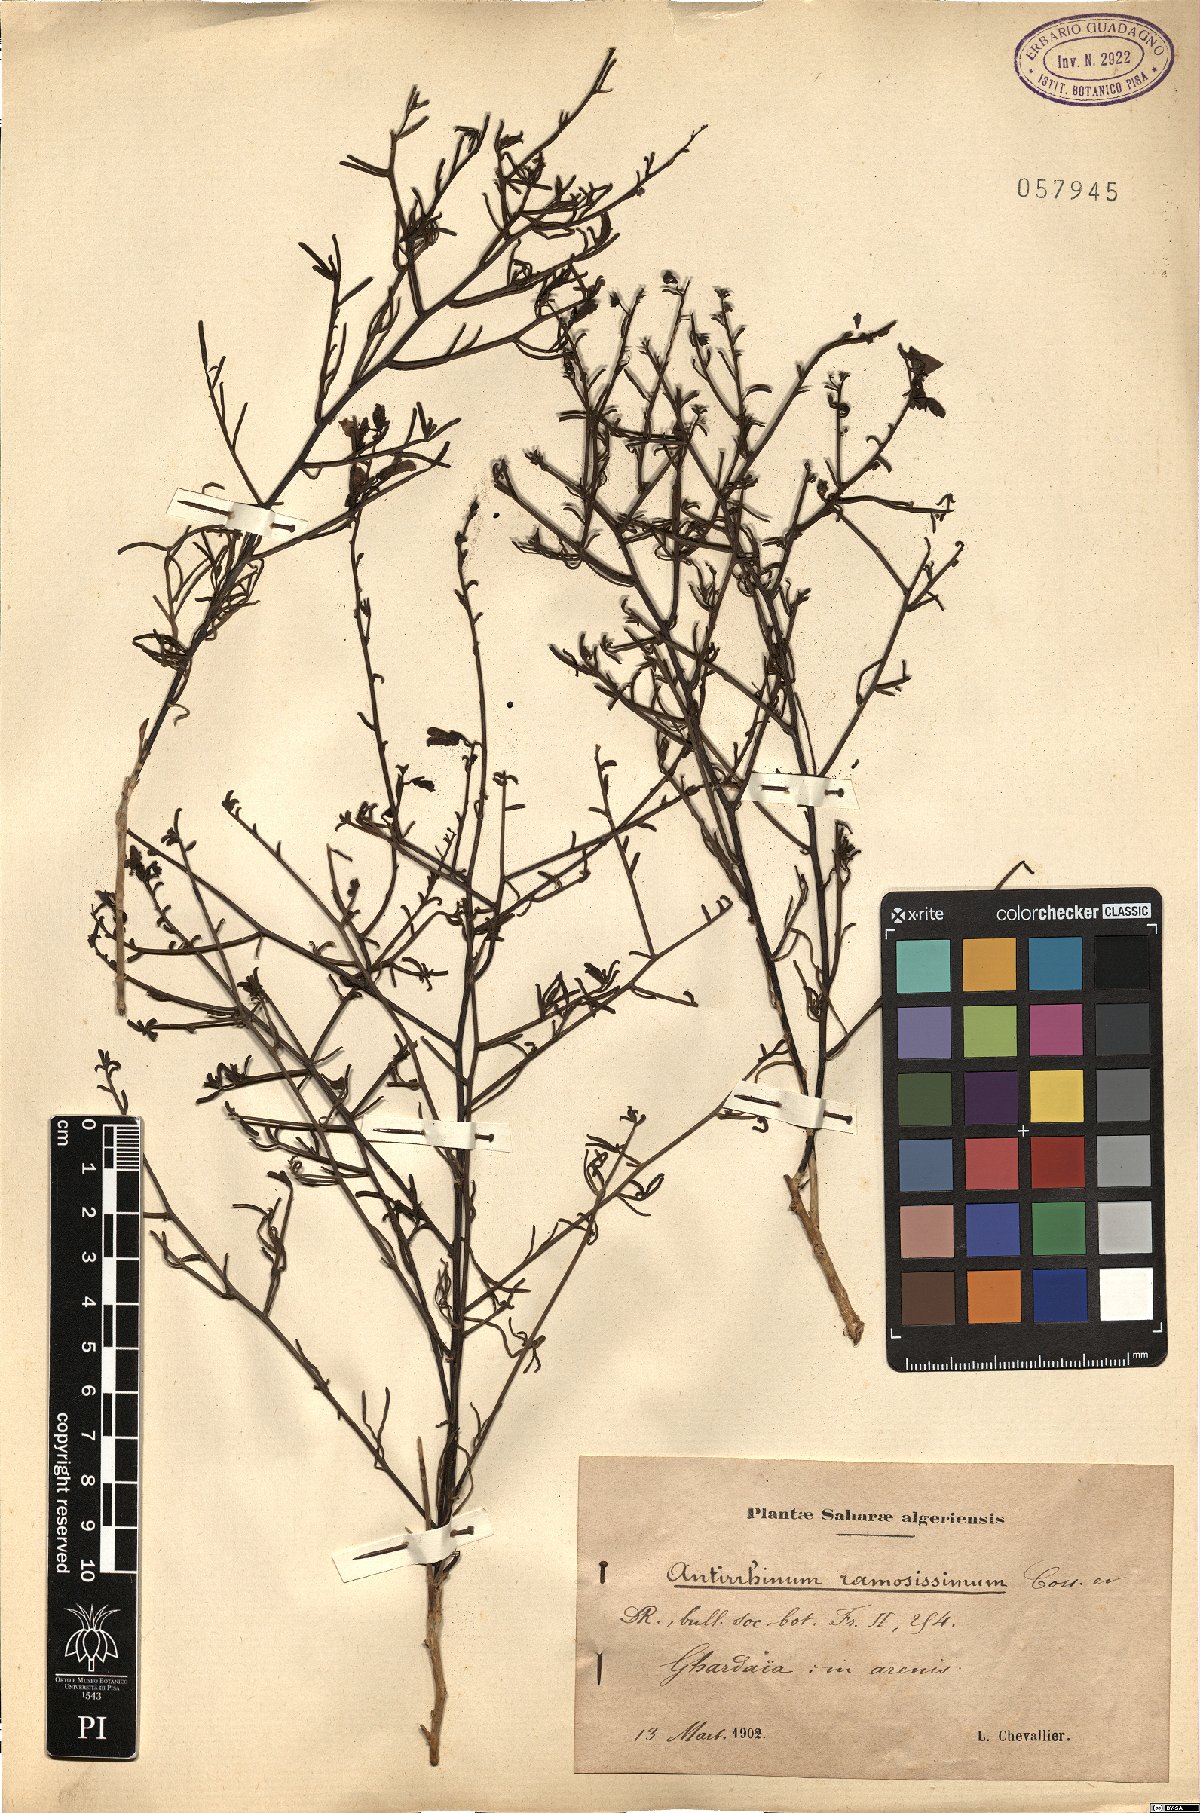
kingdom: Plantae
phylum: Tracheophyta
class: Magnoliopsida
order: Lamiales
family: Plantaginaceae
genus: Acanthorrhinum
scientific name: Acanthorrhinum ramosissimum
